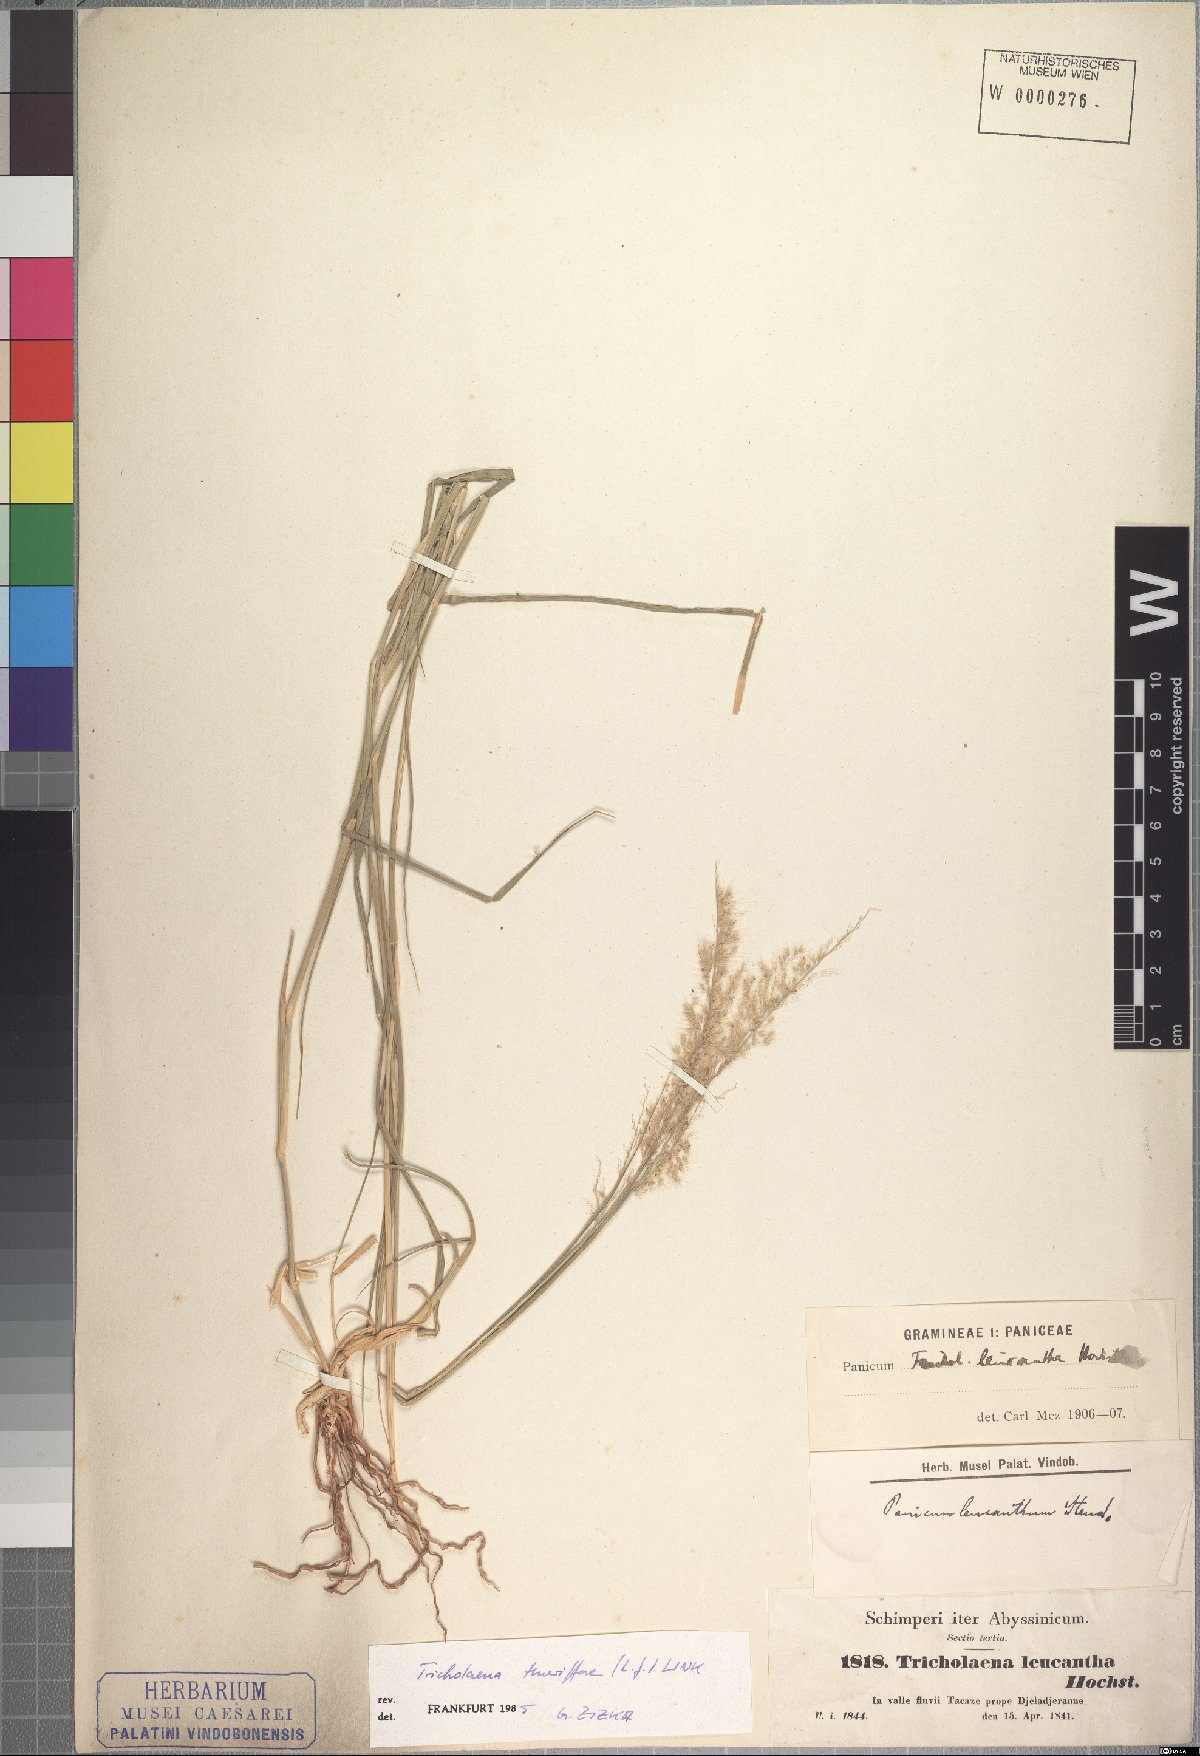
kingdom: Plantae
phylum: Tracheophyta
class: Liliopsida
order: Poales
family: Poaceae
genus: Tricholaena
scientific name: Tricholaena teneriffae
